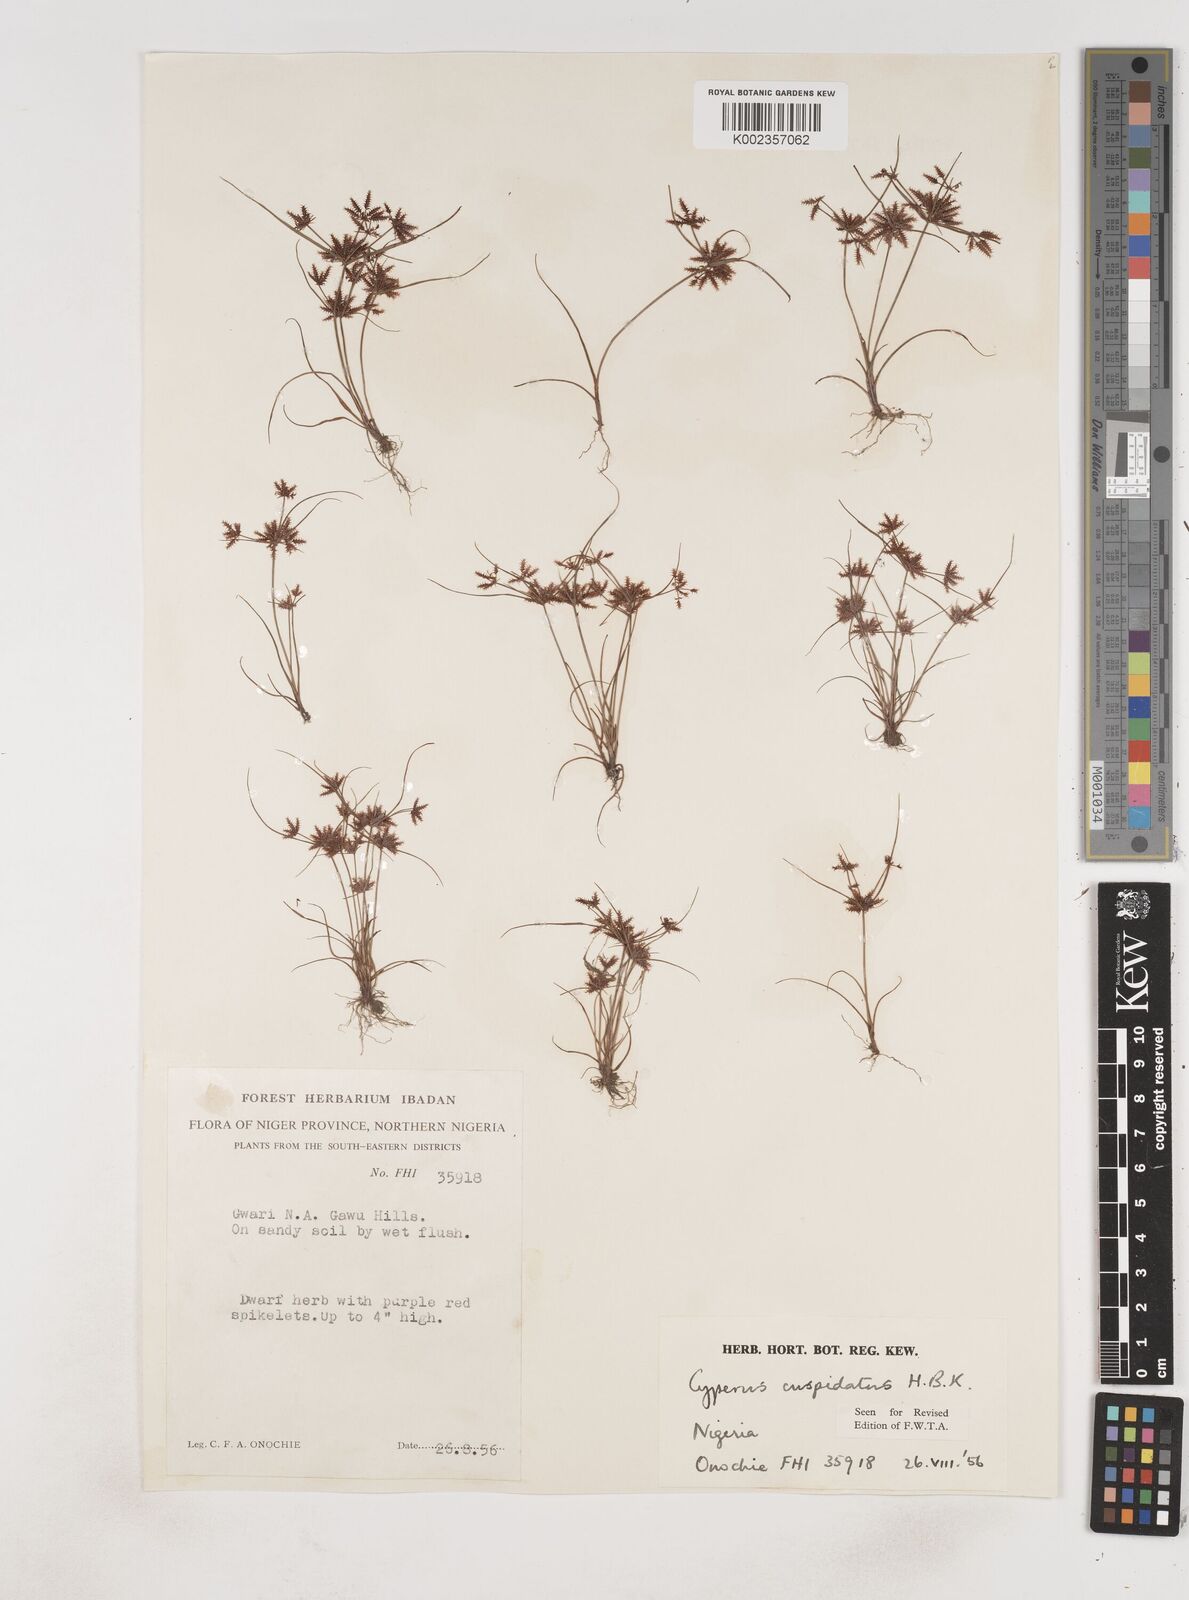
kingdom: Plantae
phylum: Tracheophyta
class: Liliopsida
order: Poales
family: Cyperaceae
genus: Cyperus
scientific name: Cyperus
